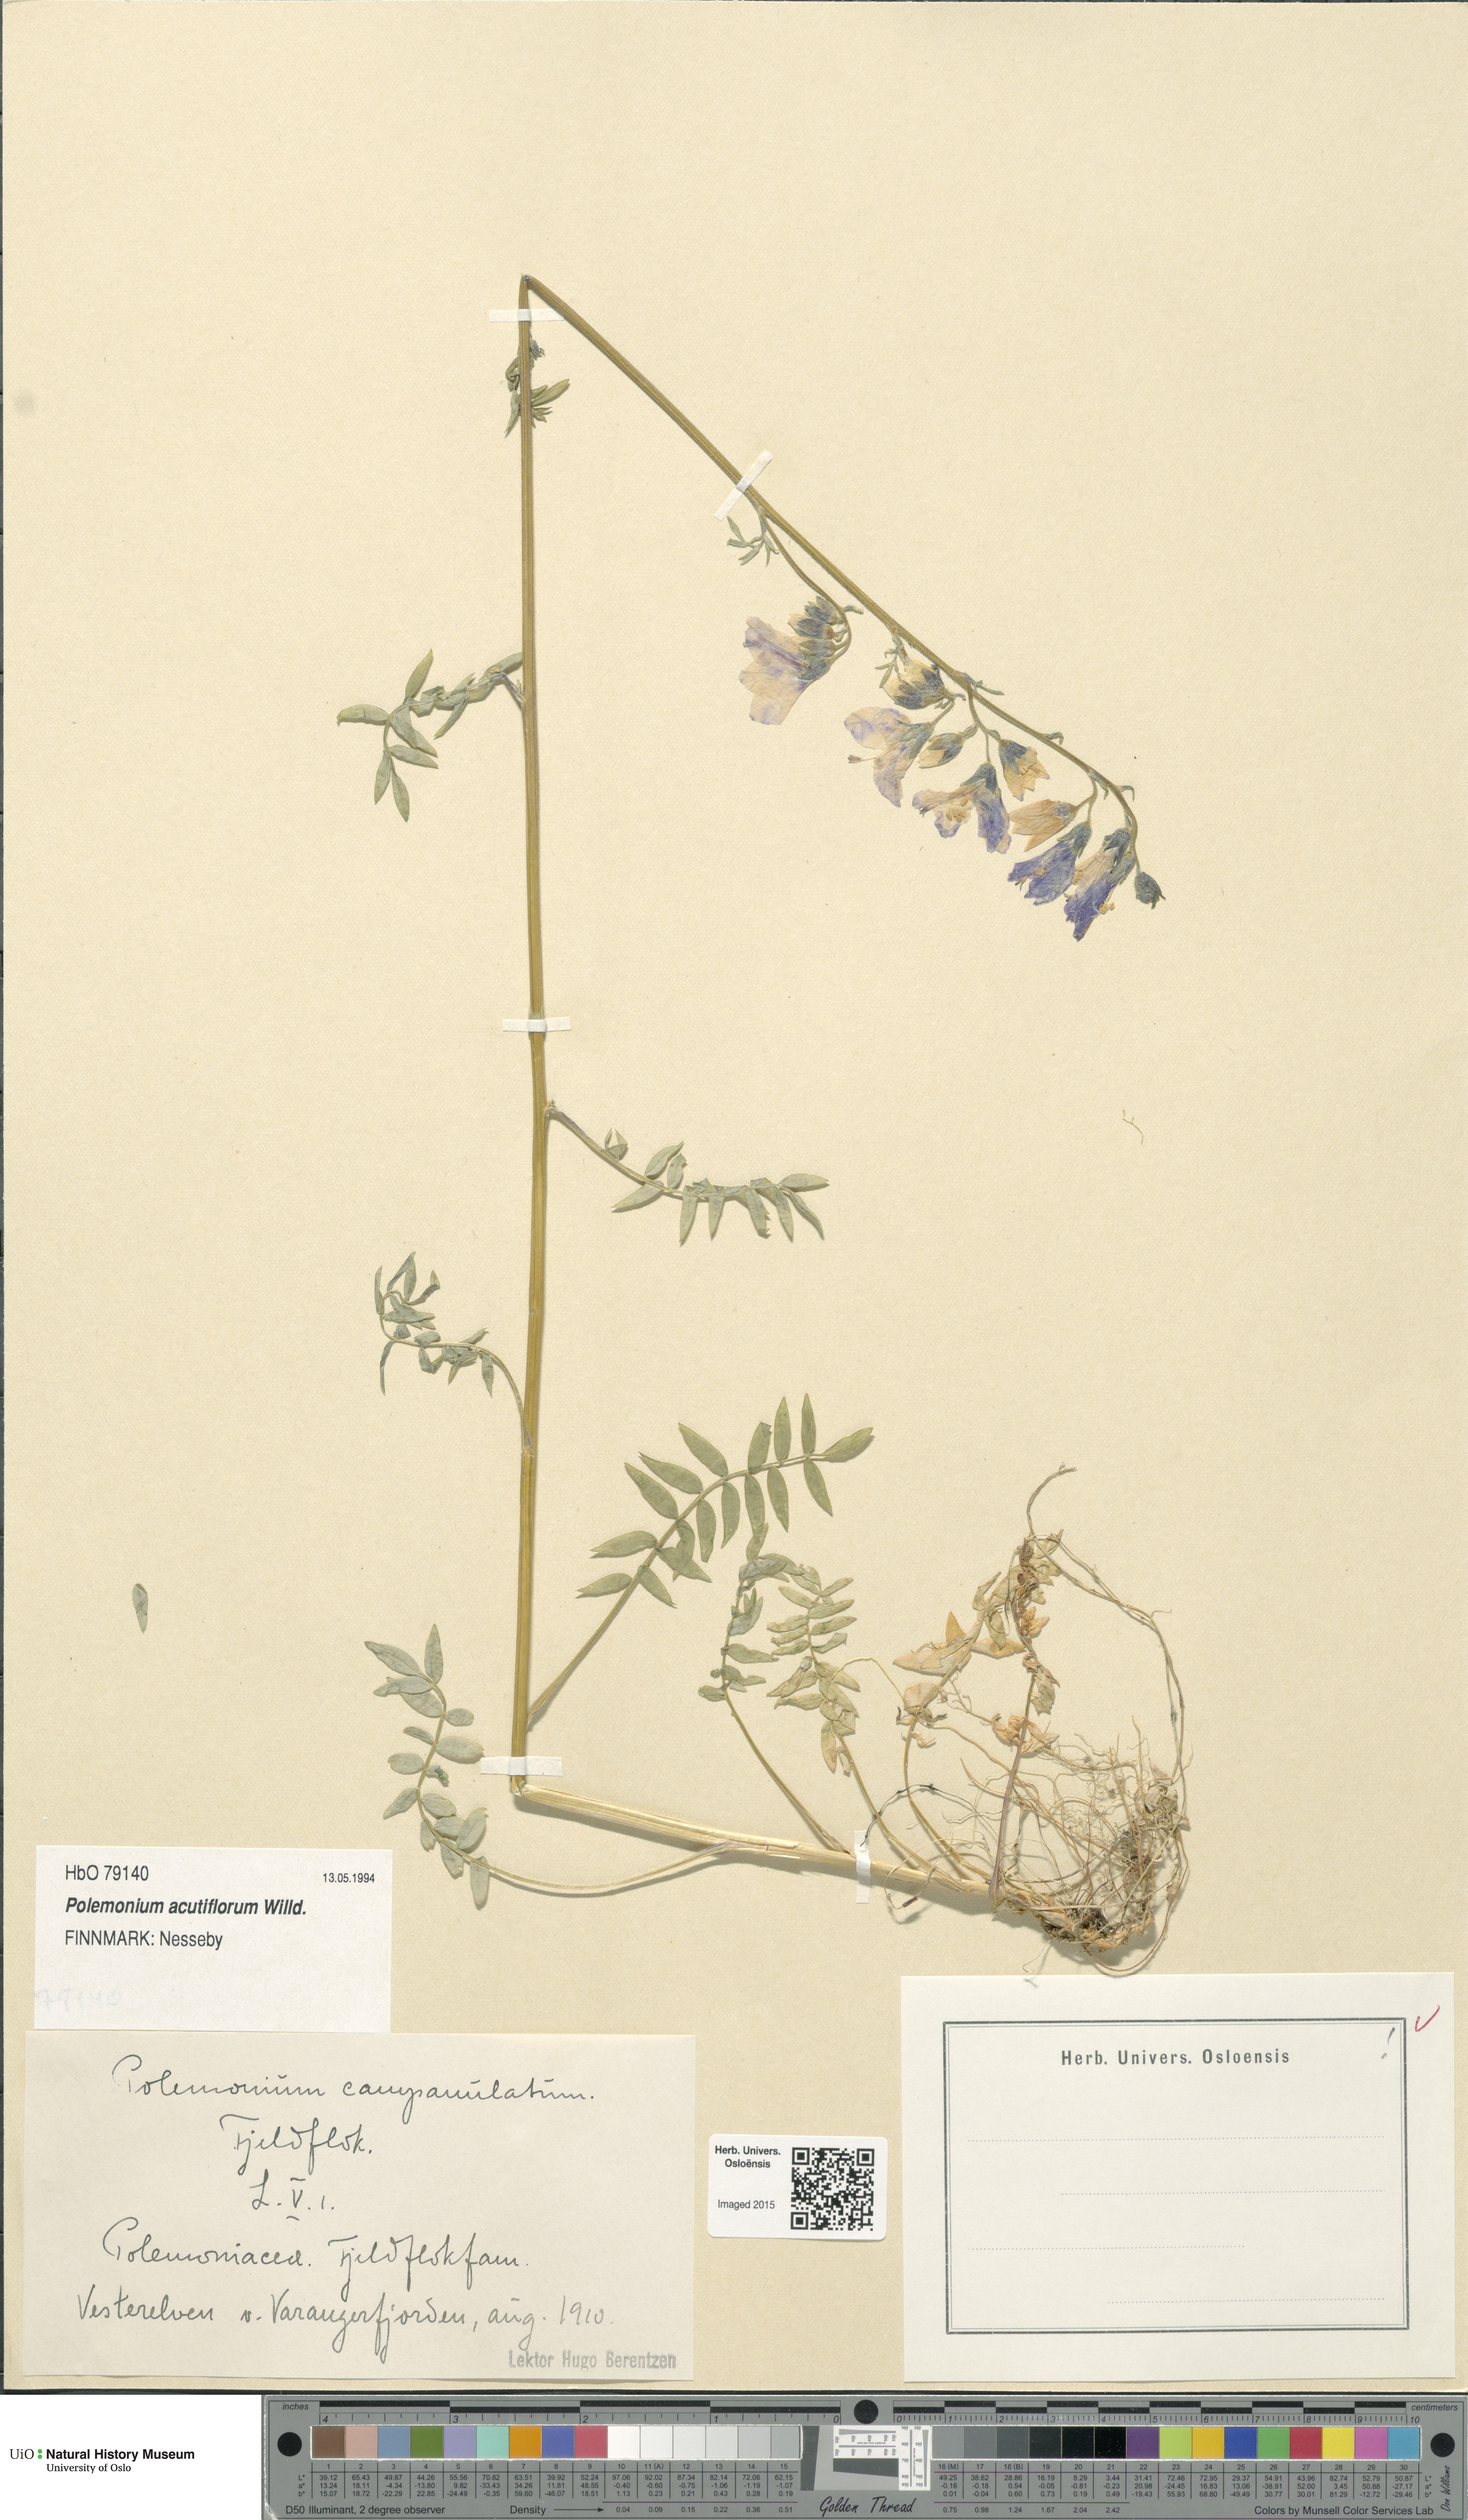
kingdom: Plantae
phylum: Tracheophyta
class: Magnoliopsida
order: Ericales
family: Polemoniaceae
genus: Polemonium
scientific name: Polemonium villosum
